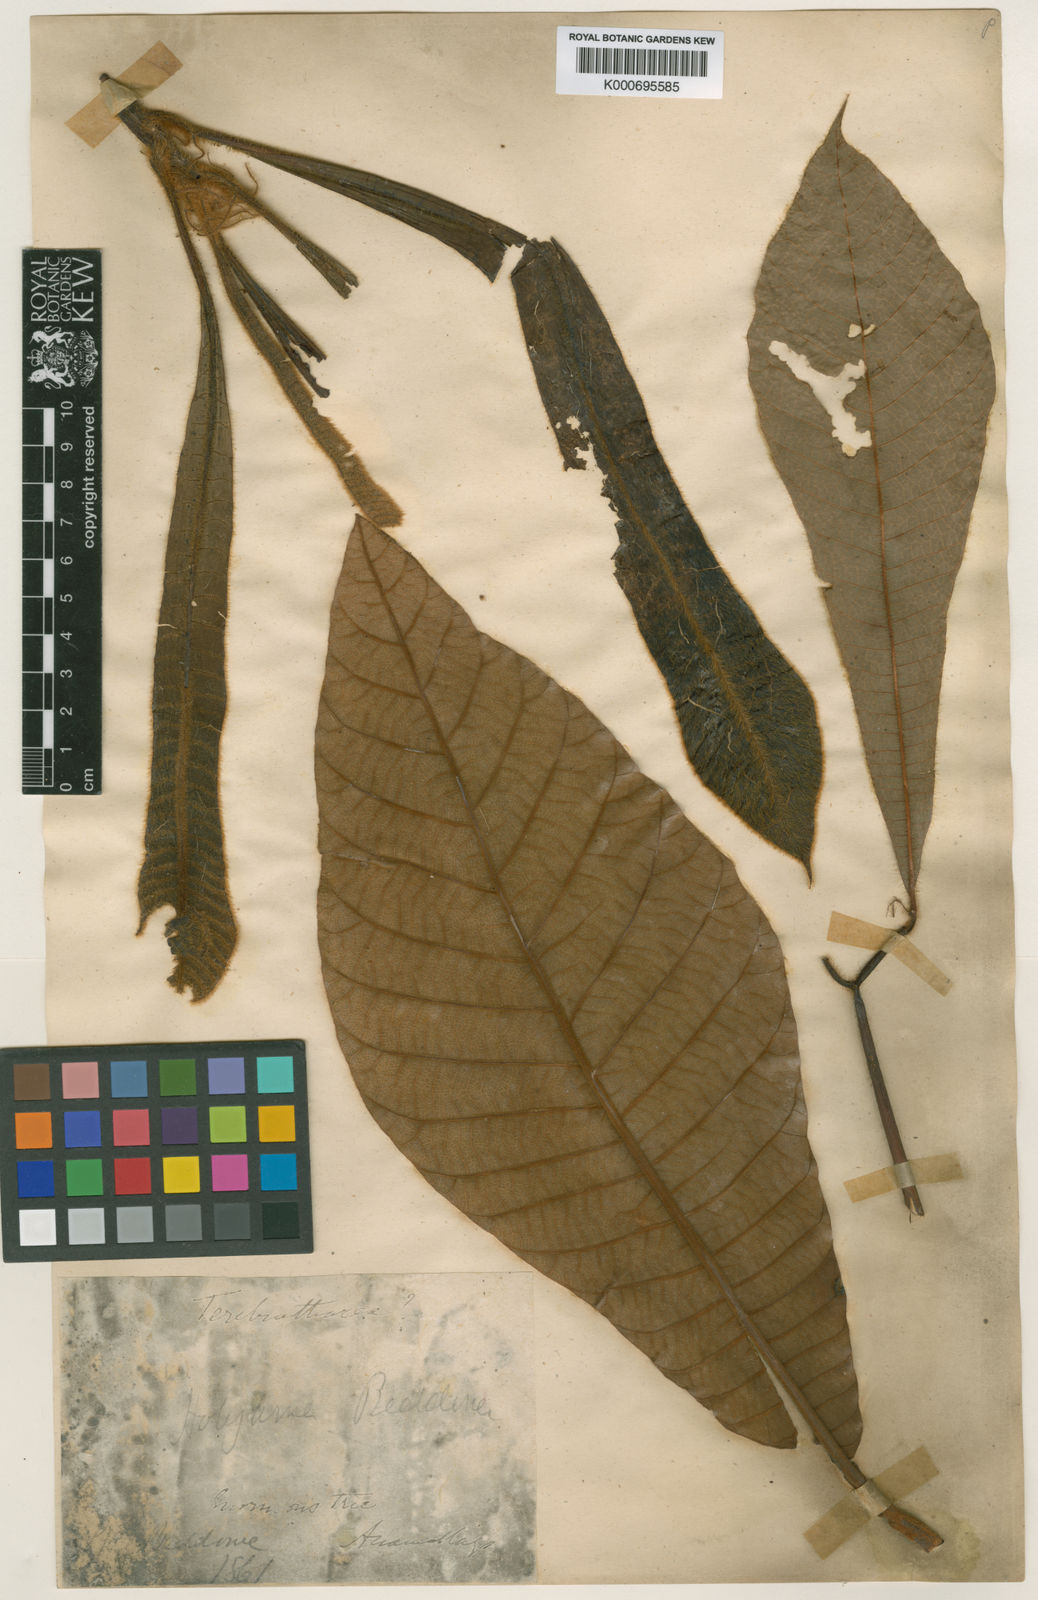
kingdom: Plantae
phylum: Tracheophyta
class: Magnoliopsida
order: Sapindales
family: Anacardiaceae
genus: Holigarna
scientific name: Holigarna beddomei
